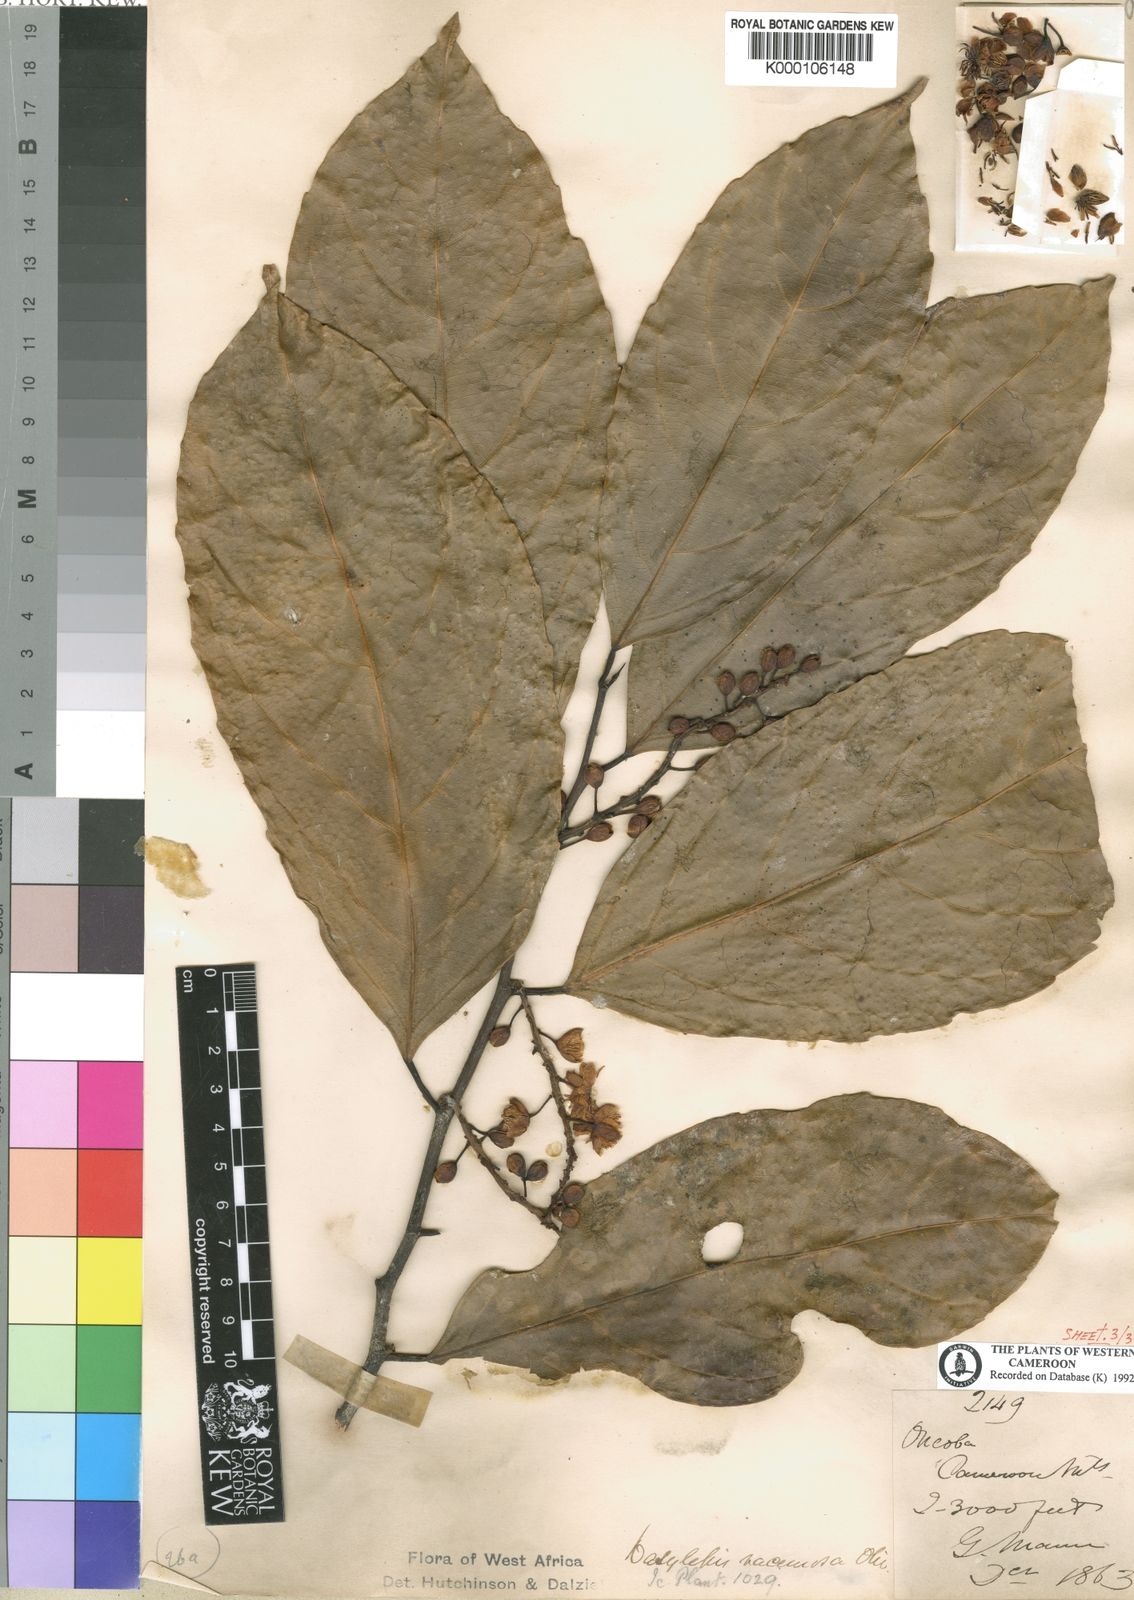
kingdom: Plantae
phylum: Tracheophyta
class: Magnoliopsida
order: Malpighiales
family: Achariaceae
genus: Dasylepis
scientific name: Dasylepis racemosa
